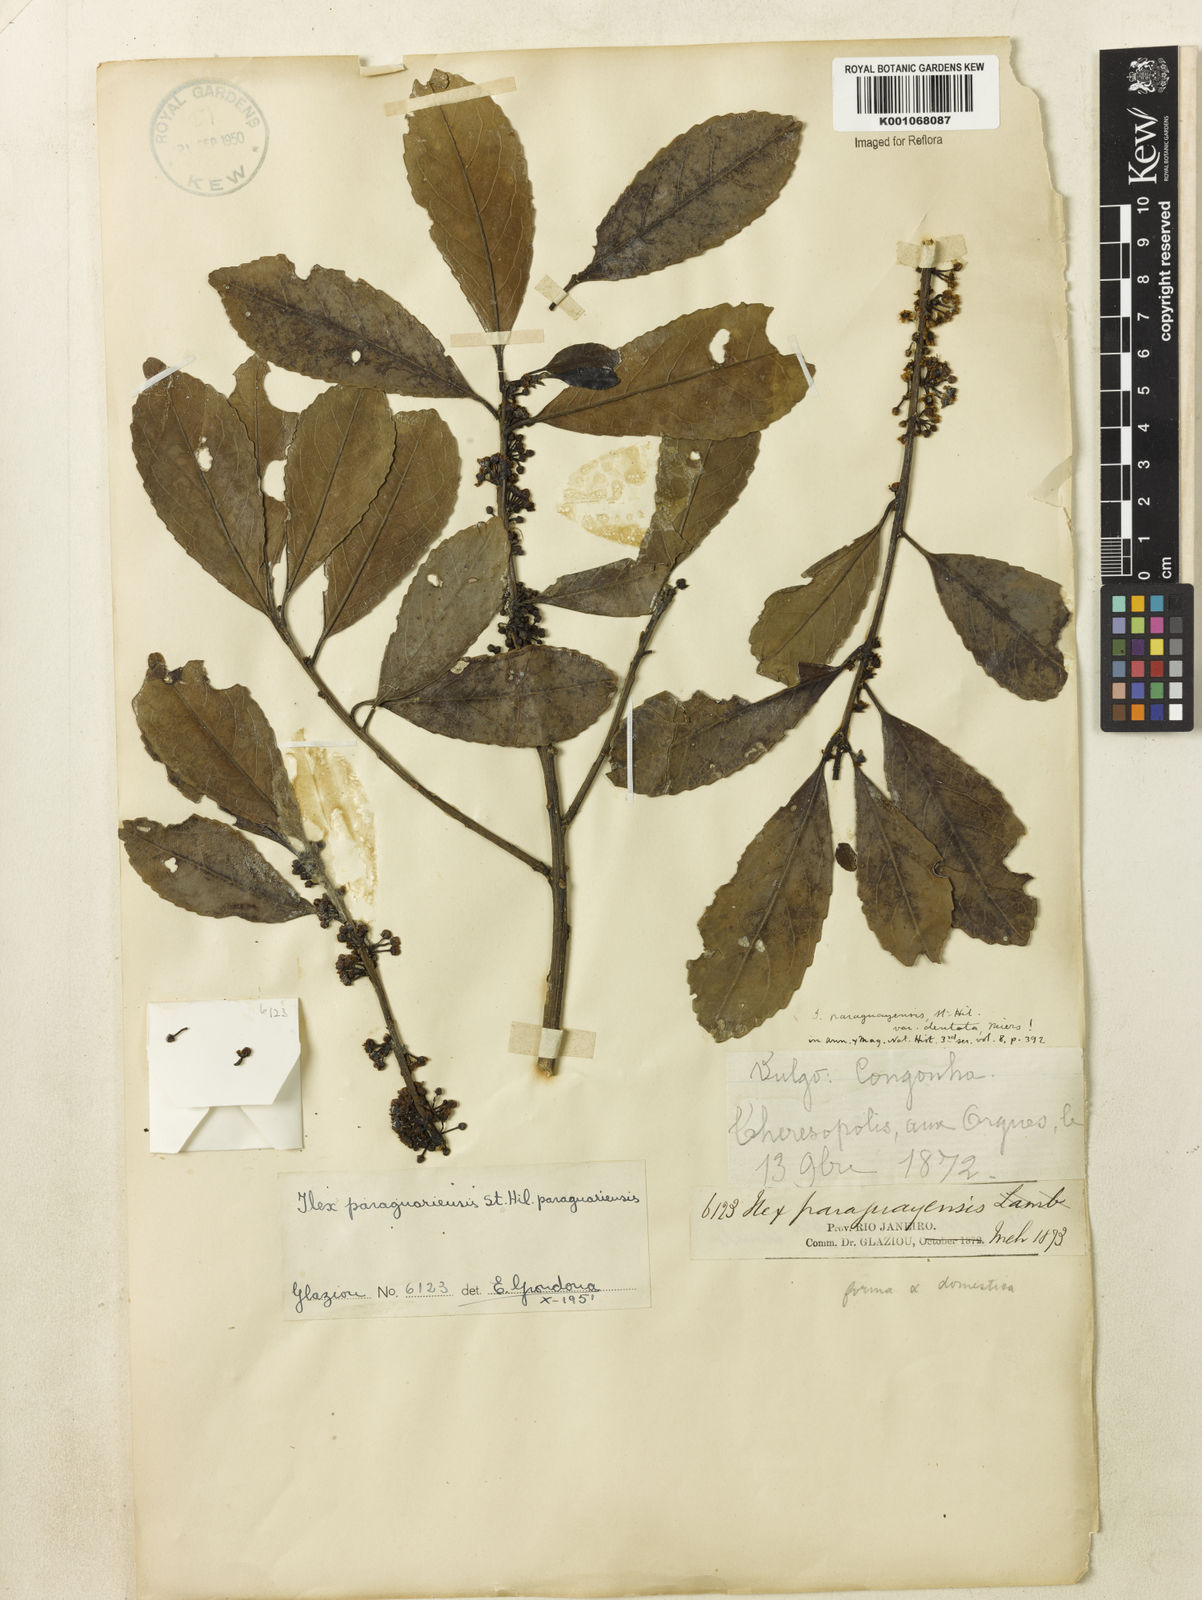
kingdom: Plantae
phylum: Tracheophyta
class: Magnoliopsida
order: Aquifoliales
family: Aquifoliaceae
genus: Ilex
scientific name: Ilex paraguariensis
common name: Paraguay tea
